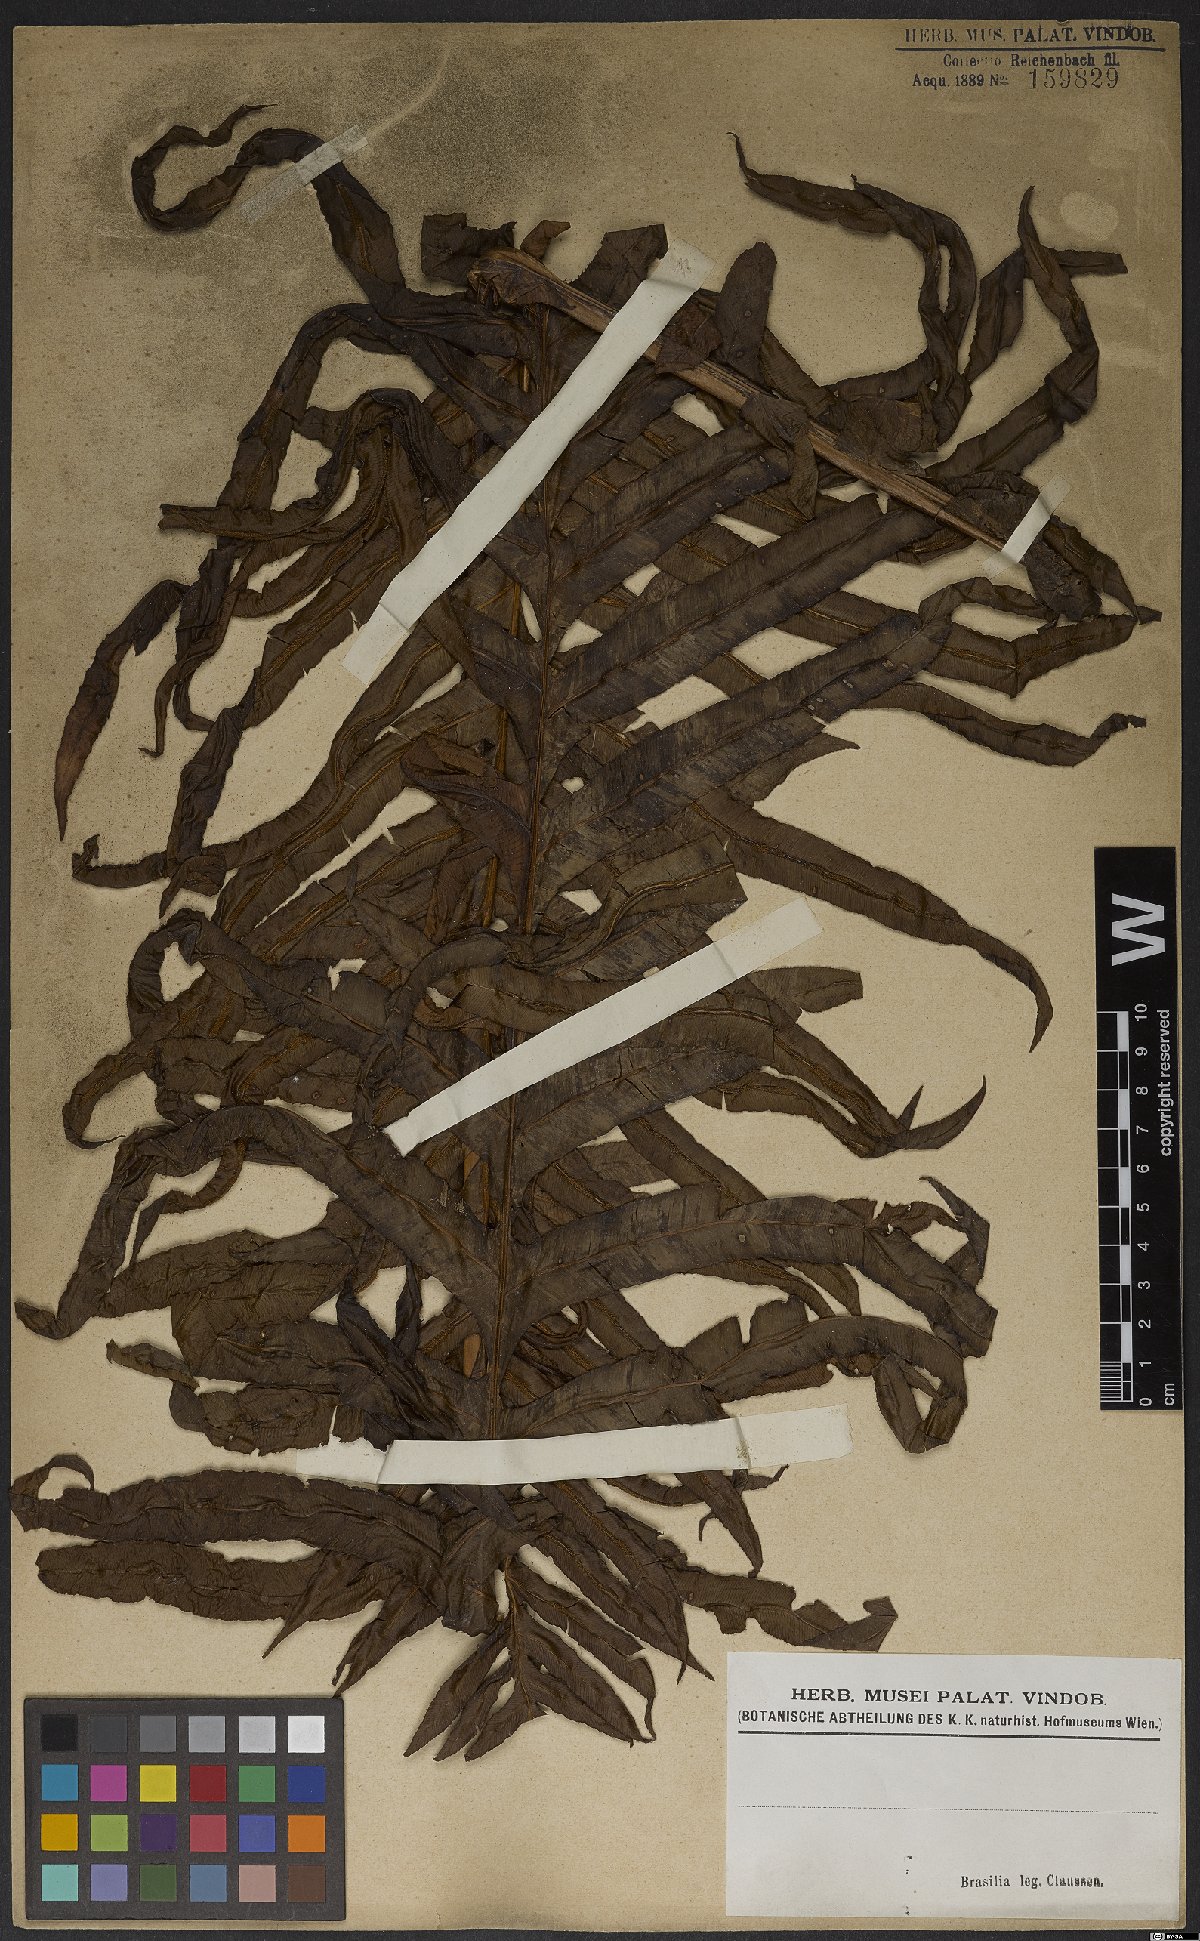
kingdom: Plantae
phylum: Tracheophyta
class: Polypodiopsida
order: Polypodiales
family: Blechnaceae
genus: Neoblechnum
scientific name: Neoblechnum brasiliense
